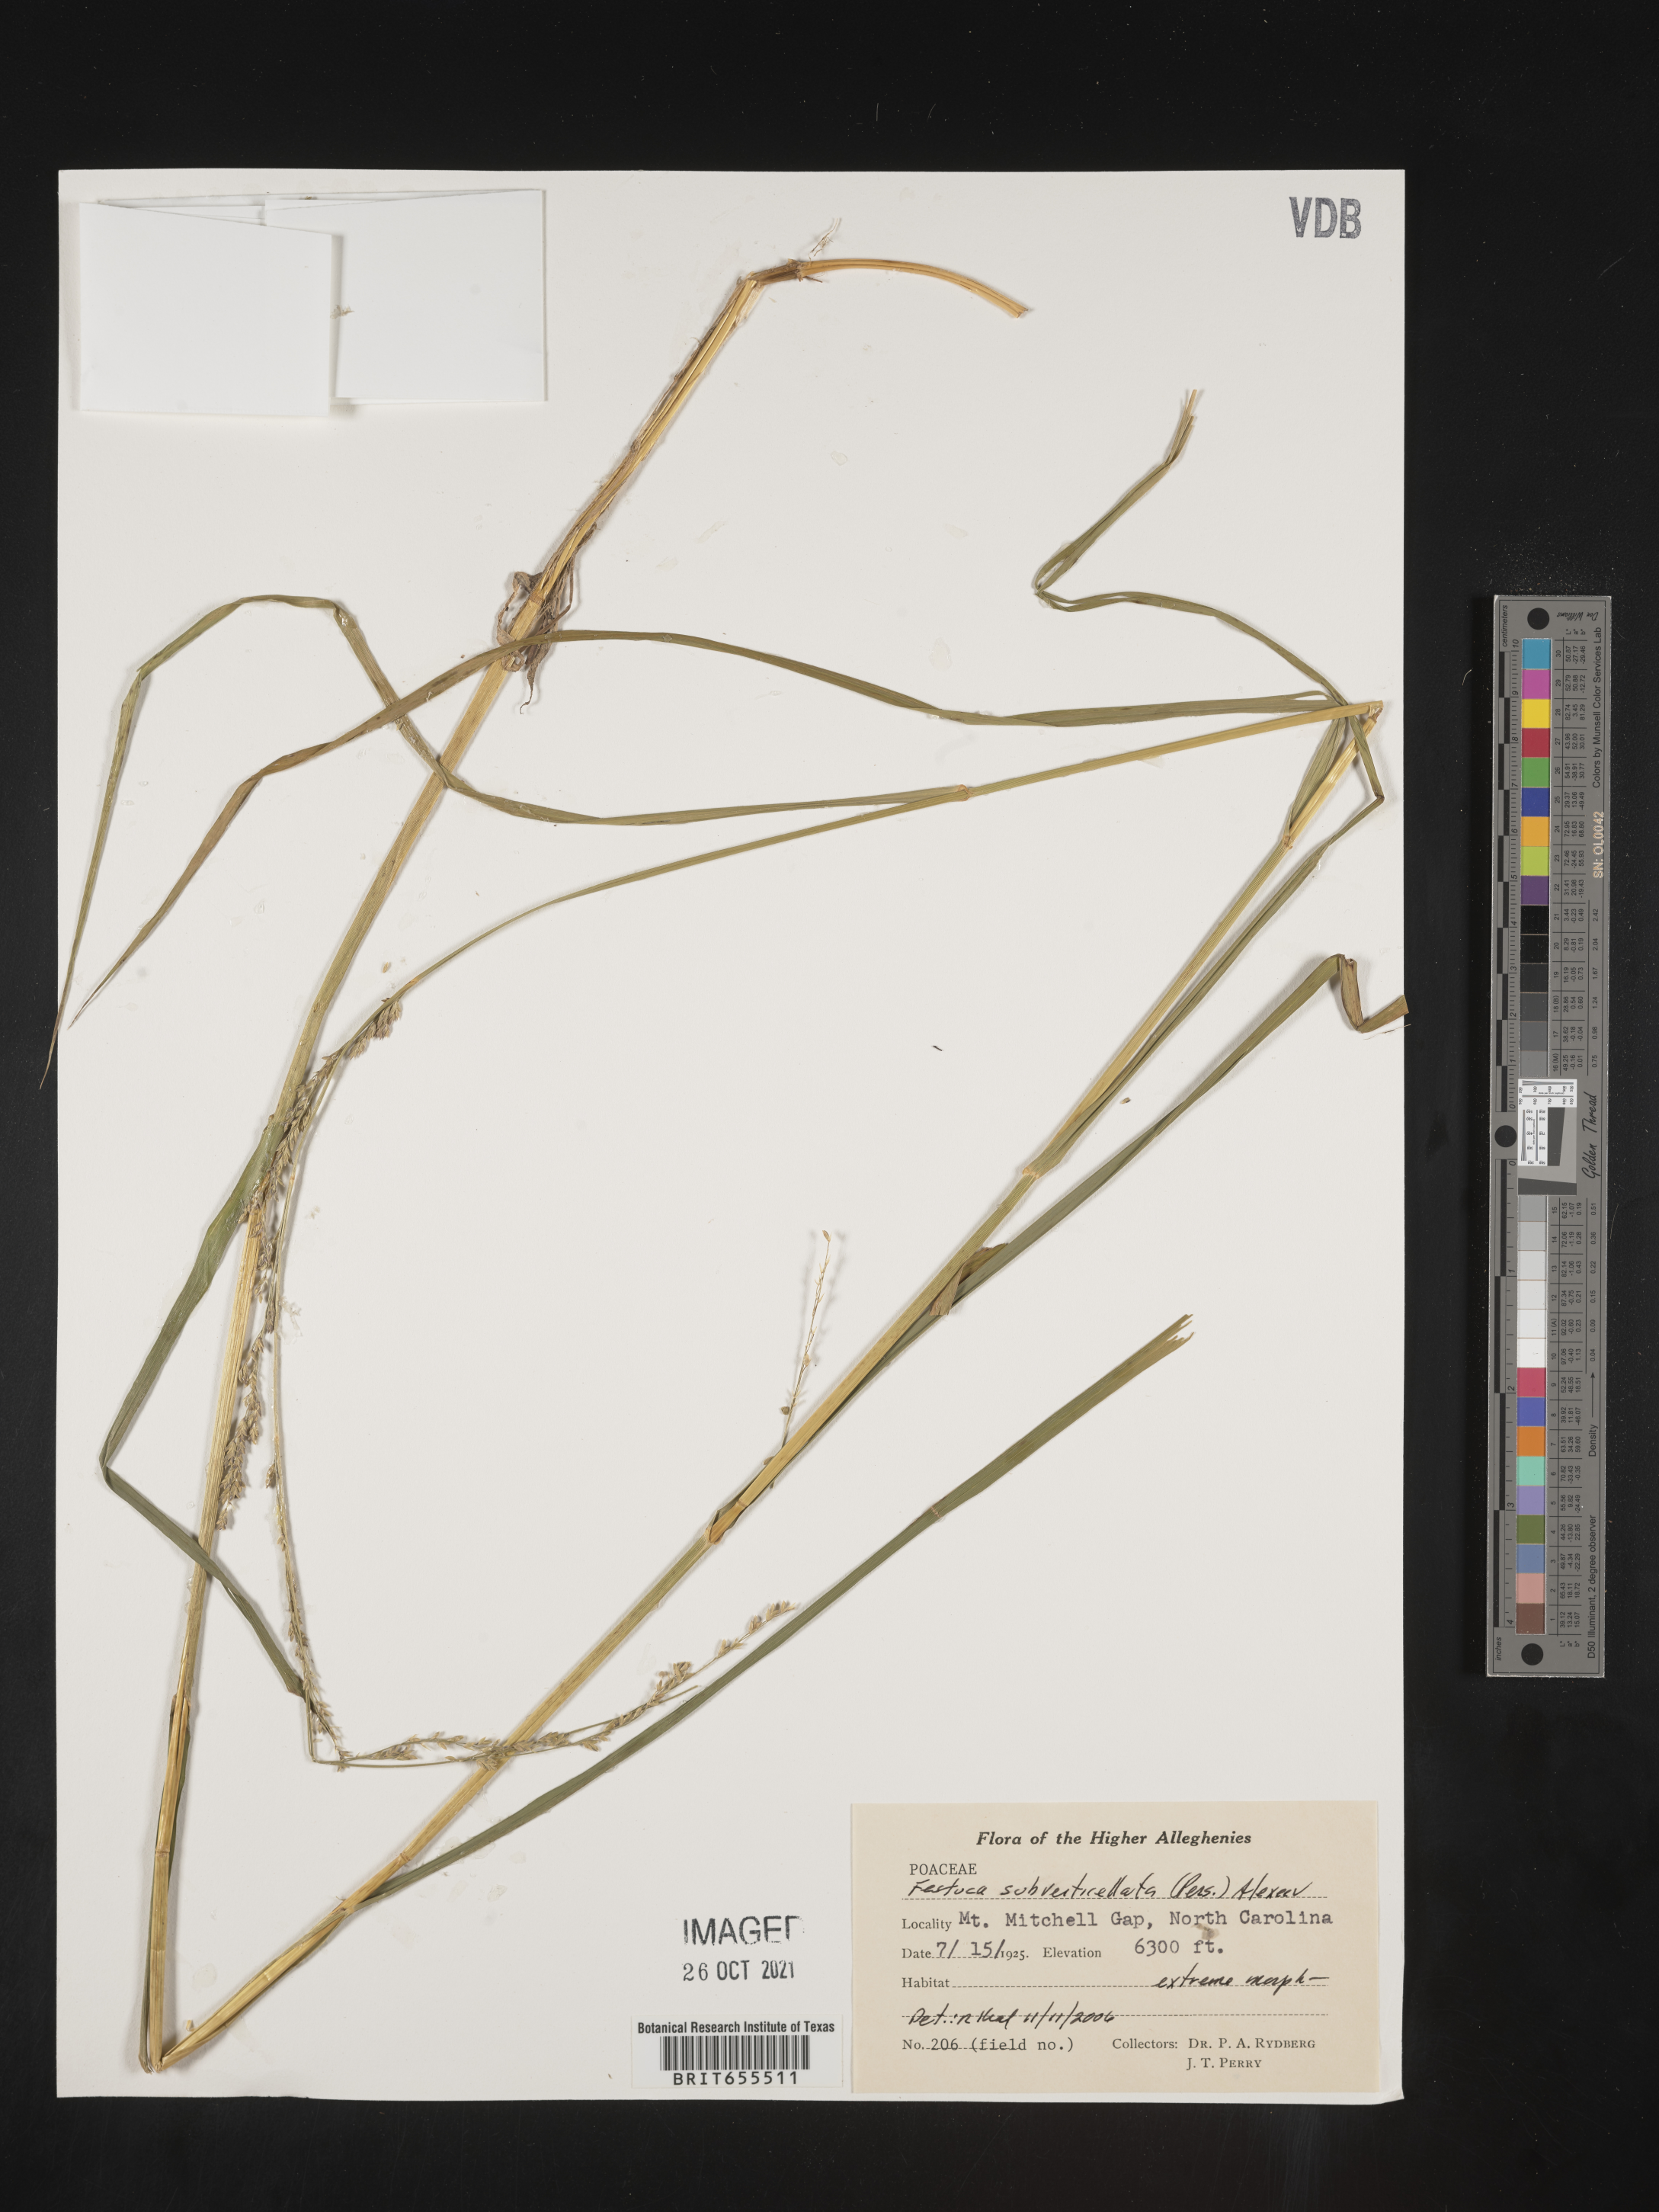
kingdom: Plantae
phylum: Tracheophyta
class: Liliopsida
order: Poales
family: Poaceae
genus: Festuca
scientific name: Festuca
